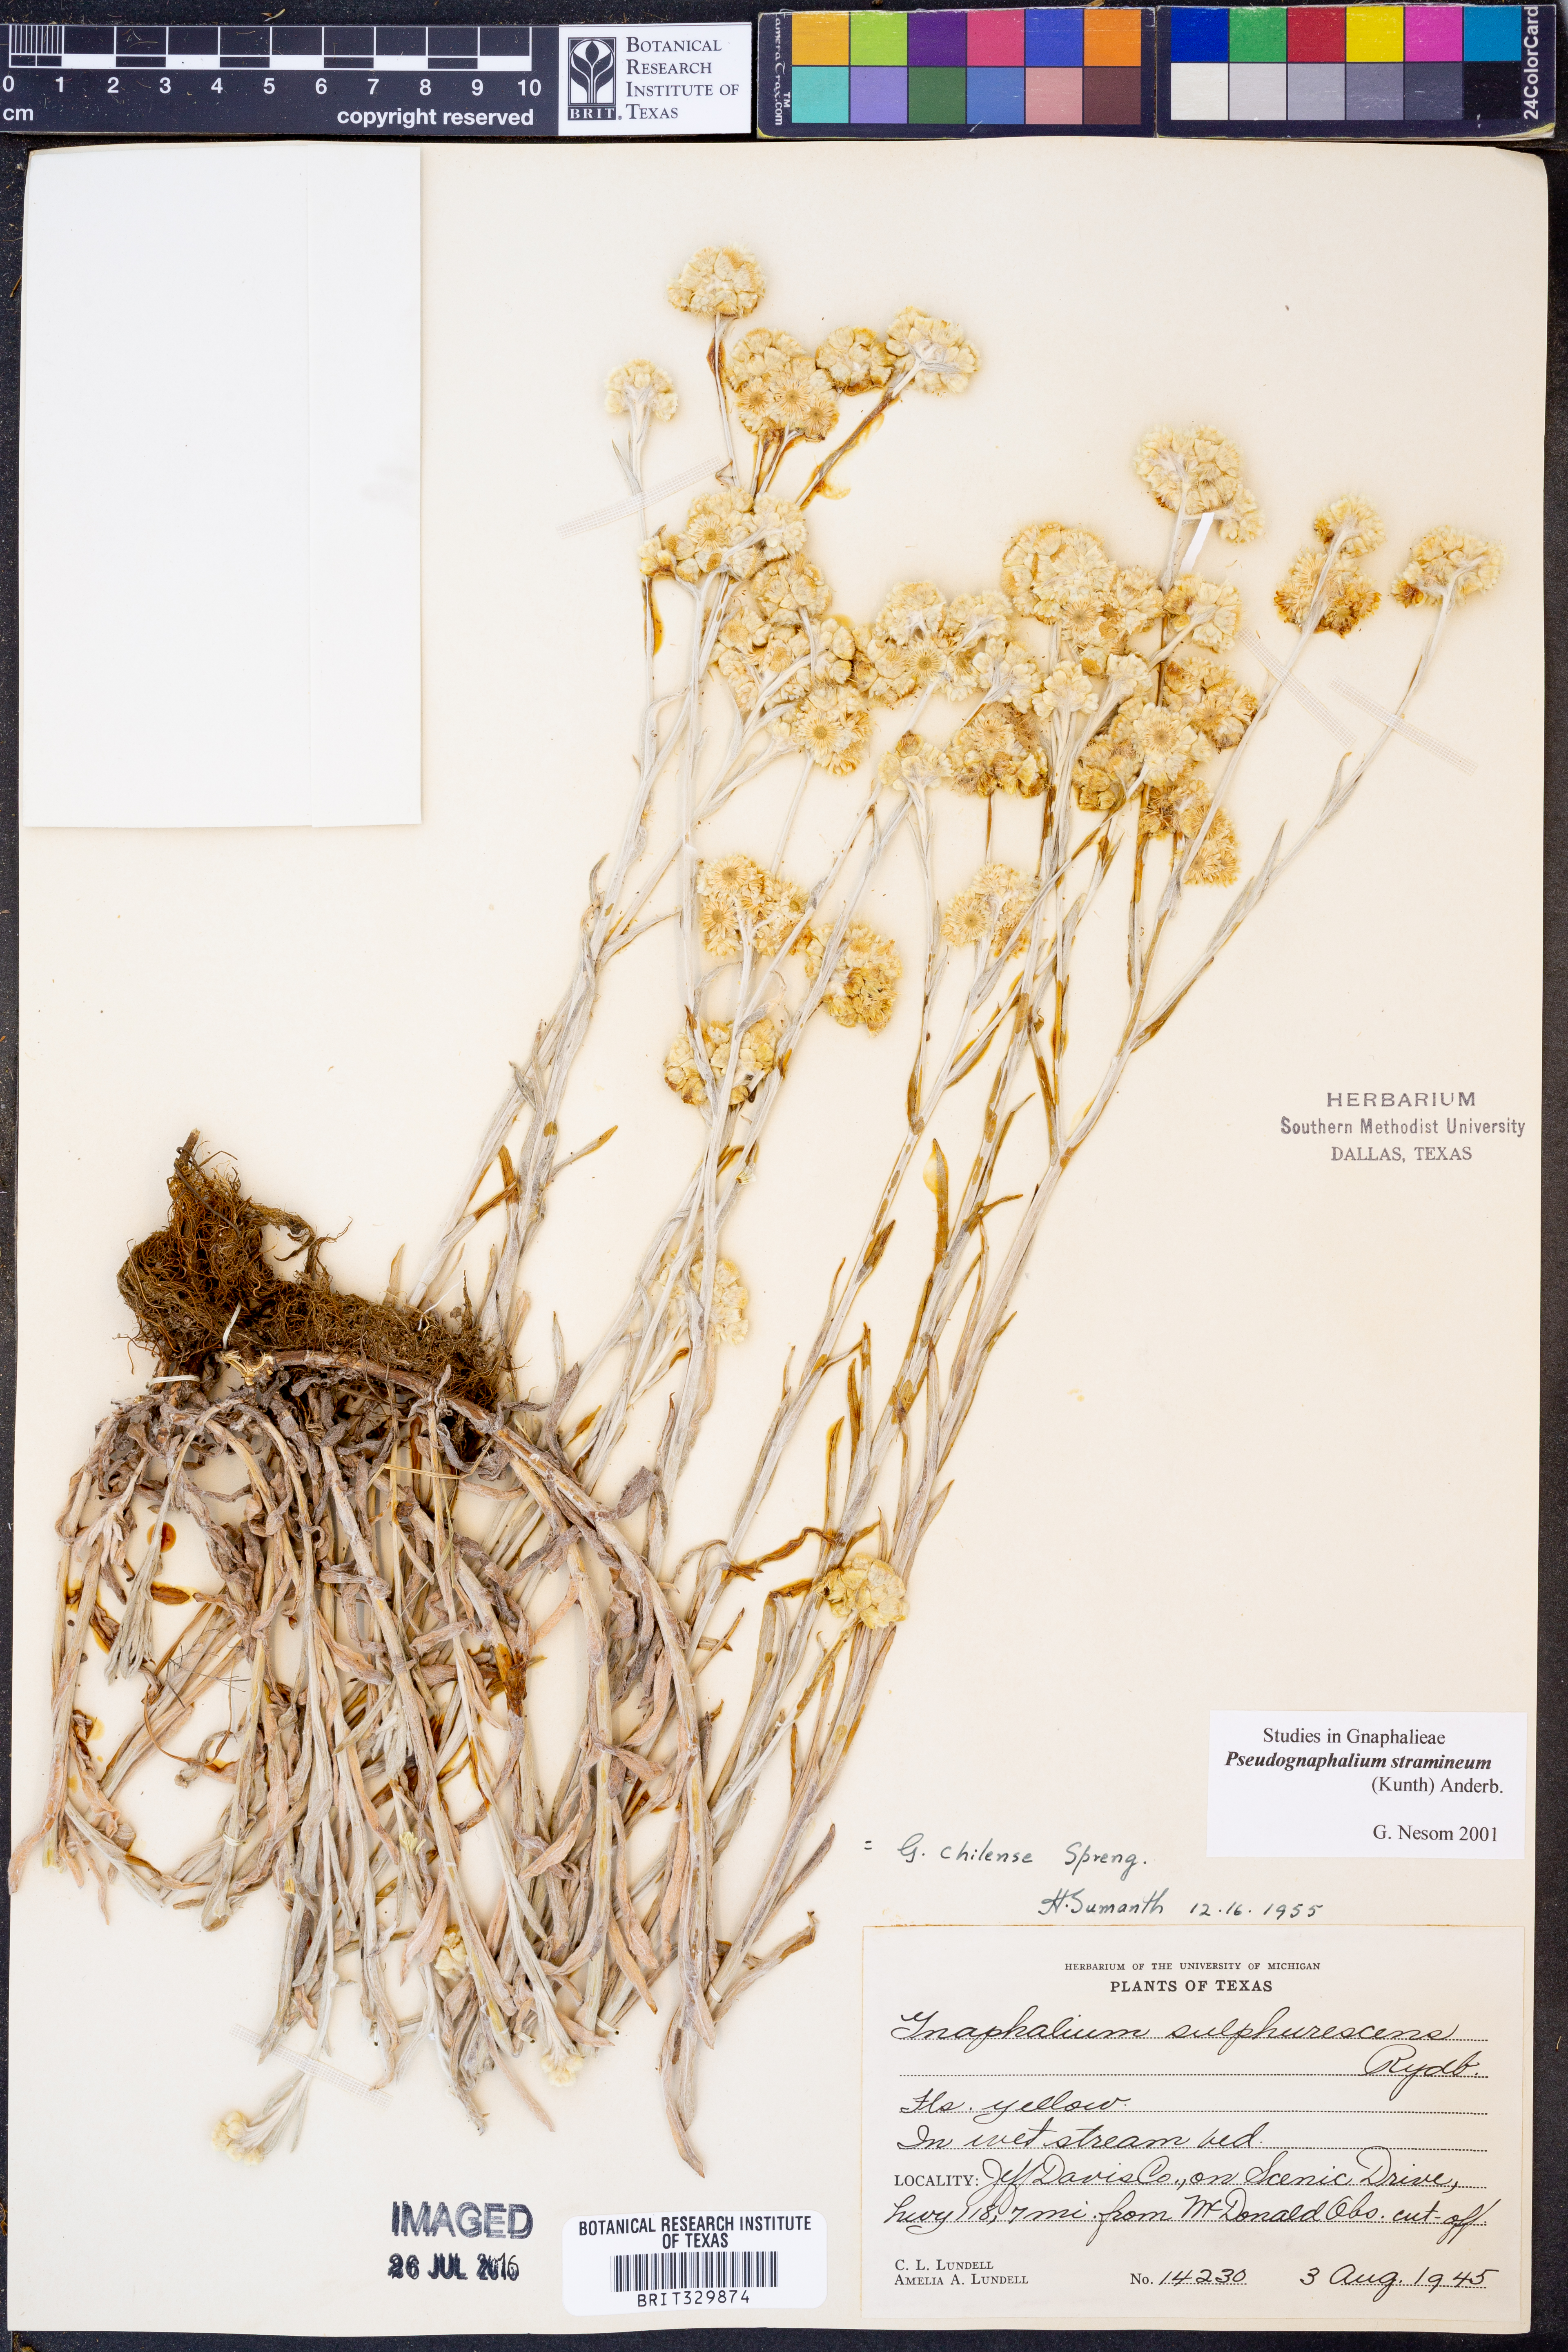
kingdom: Plantae
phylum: Tracheophyta
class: Magnoliopsida
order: Asterales
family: Asteraceae
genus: Pseudognaphalium
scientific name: Pseudognaphalium stramineum
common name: Cotton-batting-plant
